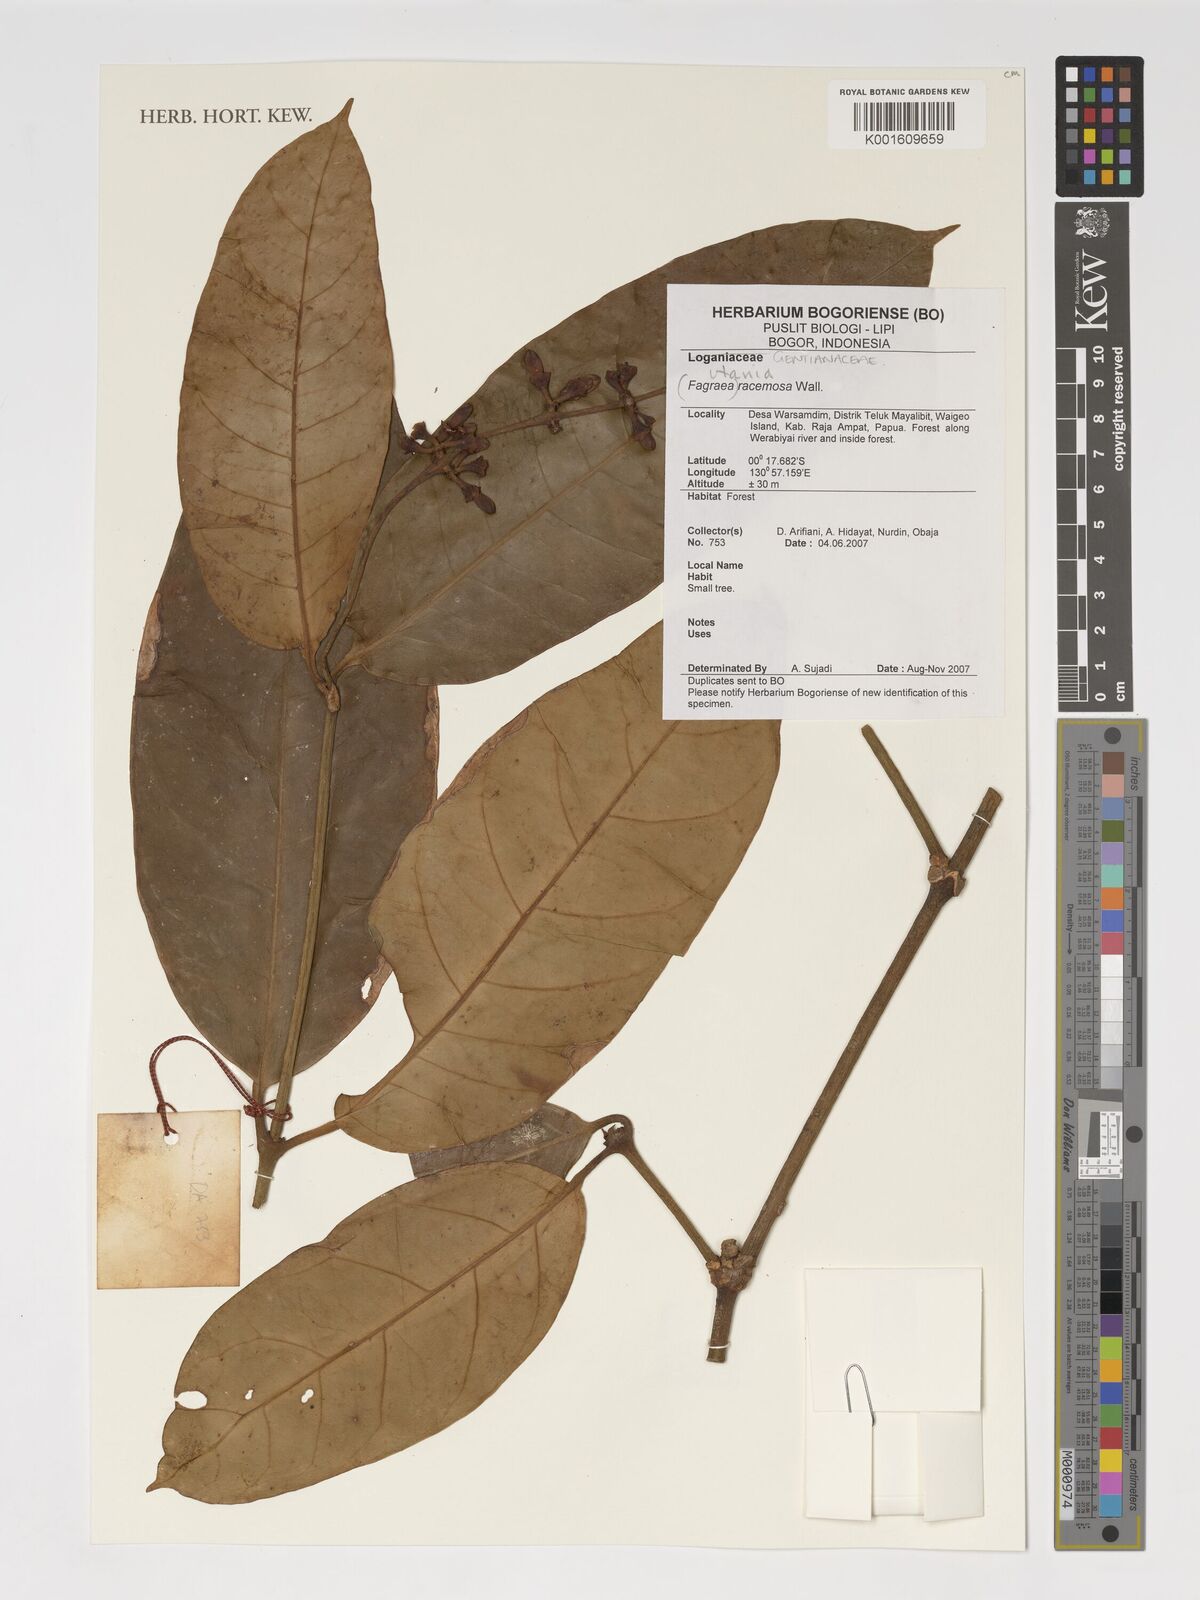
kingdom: Plantae
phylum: Tracheophyta
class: Magnoliopsida
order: Gentianales
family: Gentianaceae
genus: Utania
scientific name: Utania racemosa
